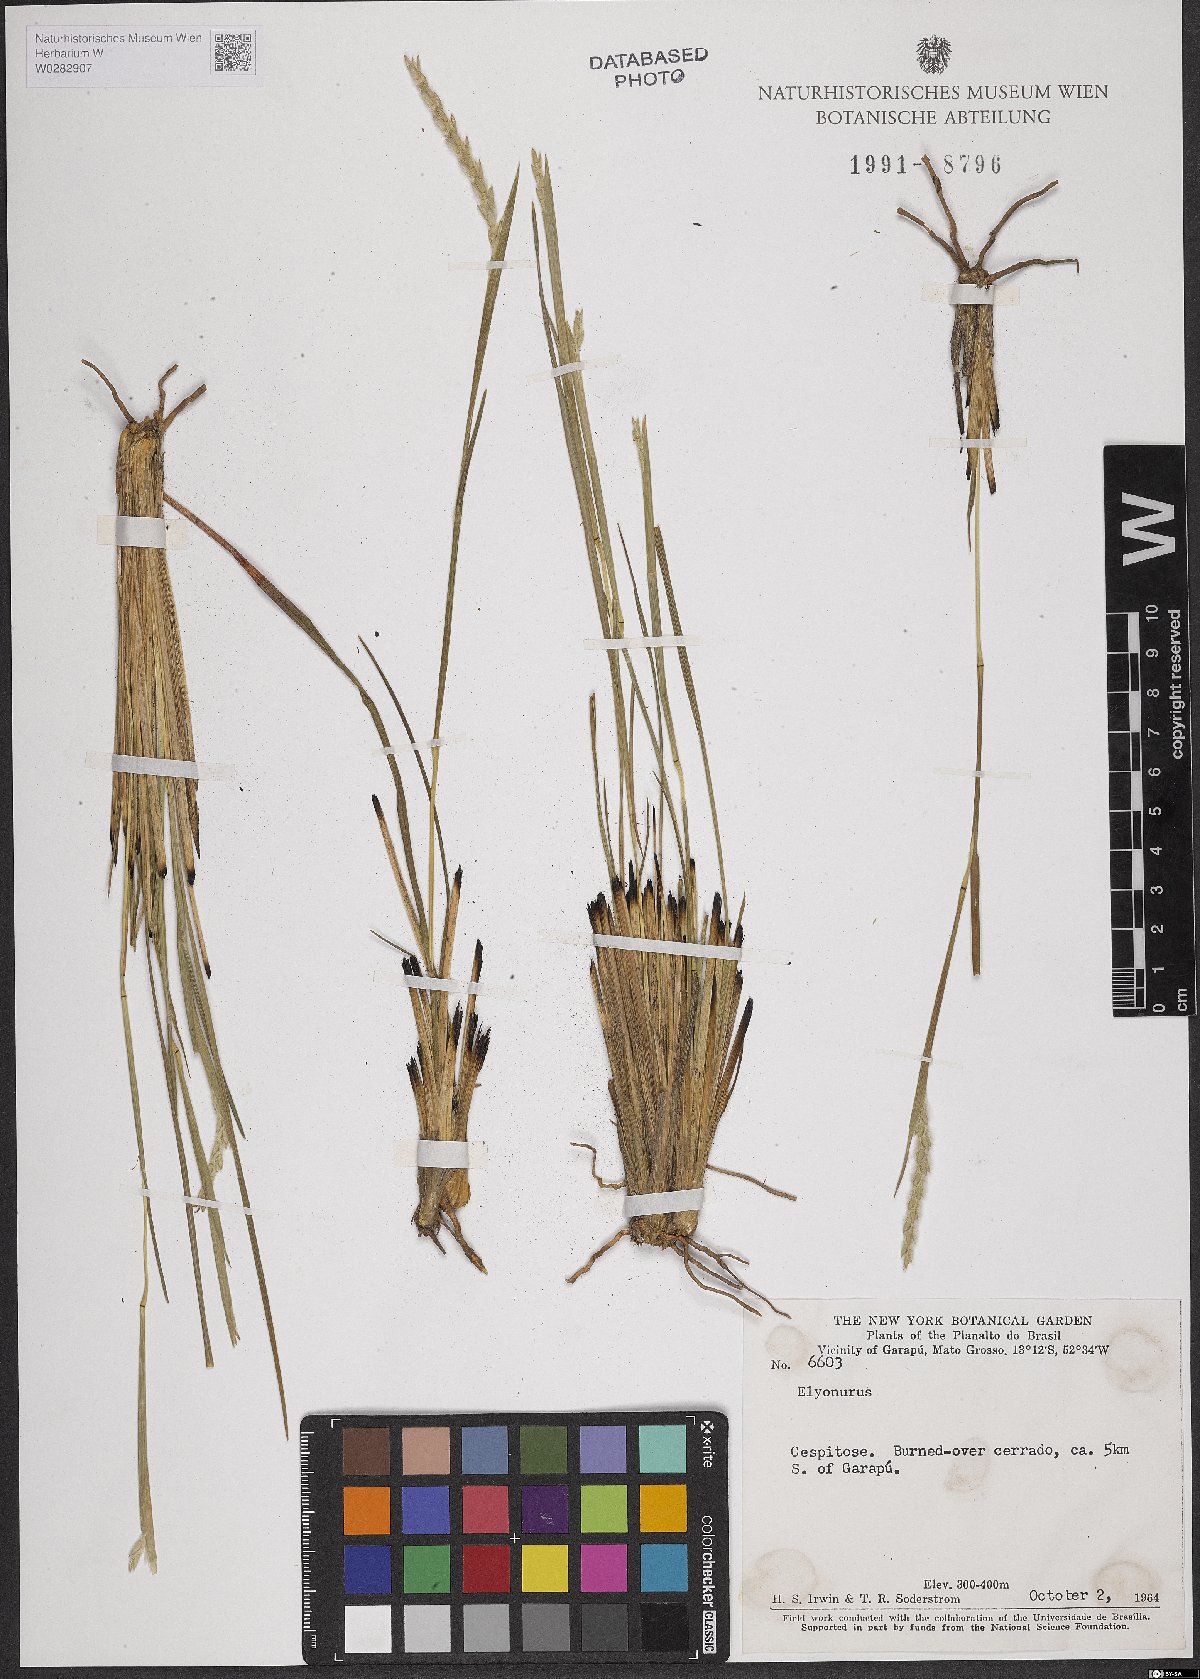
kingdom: Plantae
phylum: Tracheophyta
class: Liliopsida
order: Poales
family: Poaceae
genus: Elionurus
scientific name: Elionurus
